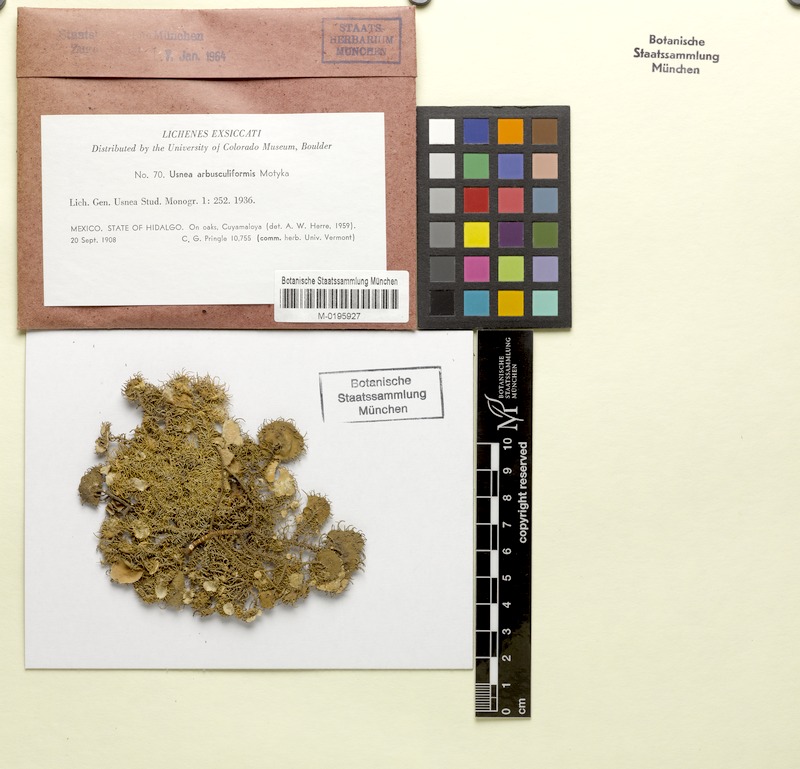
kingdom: Fungi
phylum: Ascomycota
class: Lecanoromycetes
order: Lecanorales
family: Parmeliaceae
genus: Usnea
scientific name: Usnea arbusculiformis
